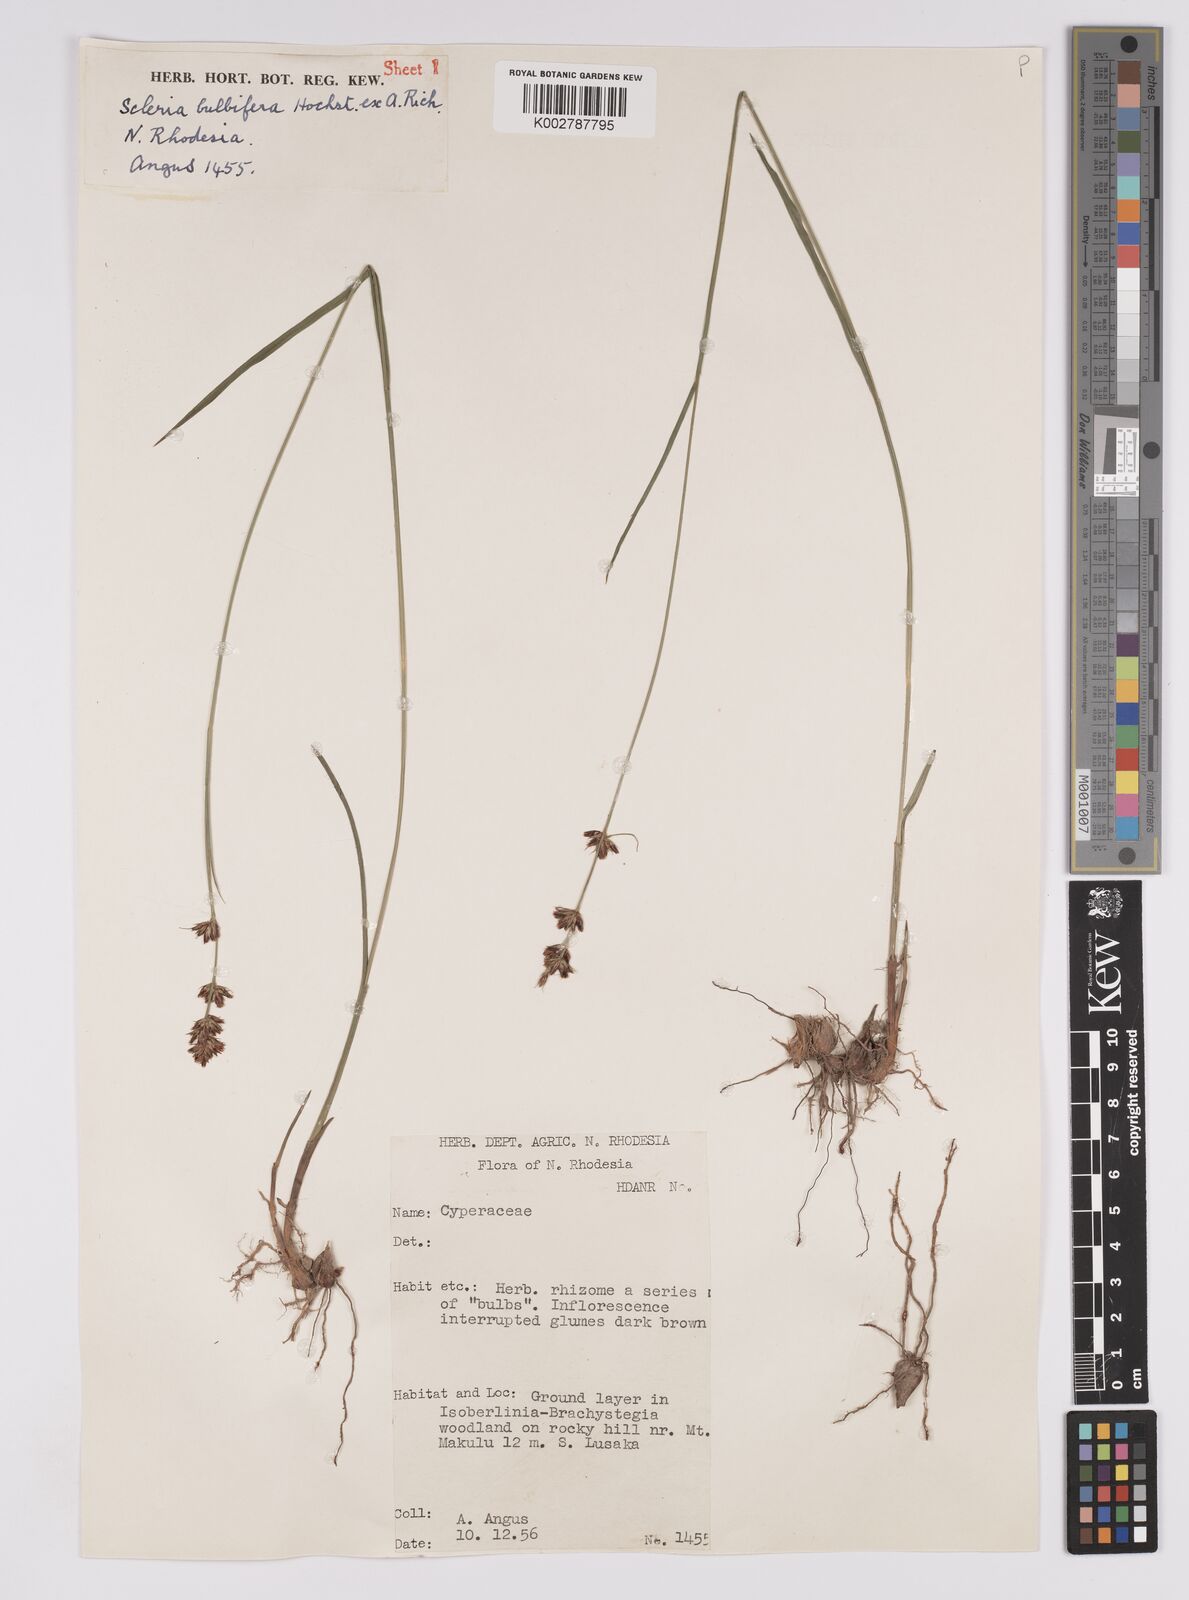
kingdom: Plantae
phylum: Tracheophyta
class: Liliopsida
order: Poales
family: Cyperaceae
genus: Scleria
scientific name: Scleria bulbifera
